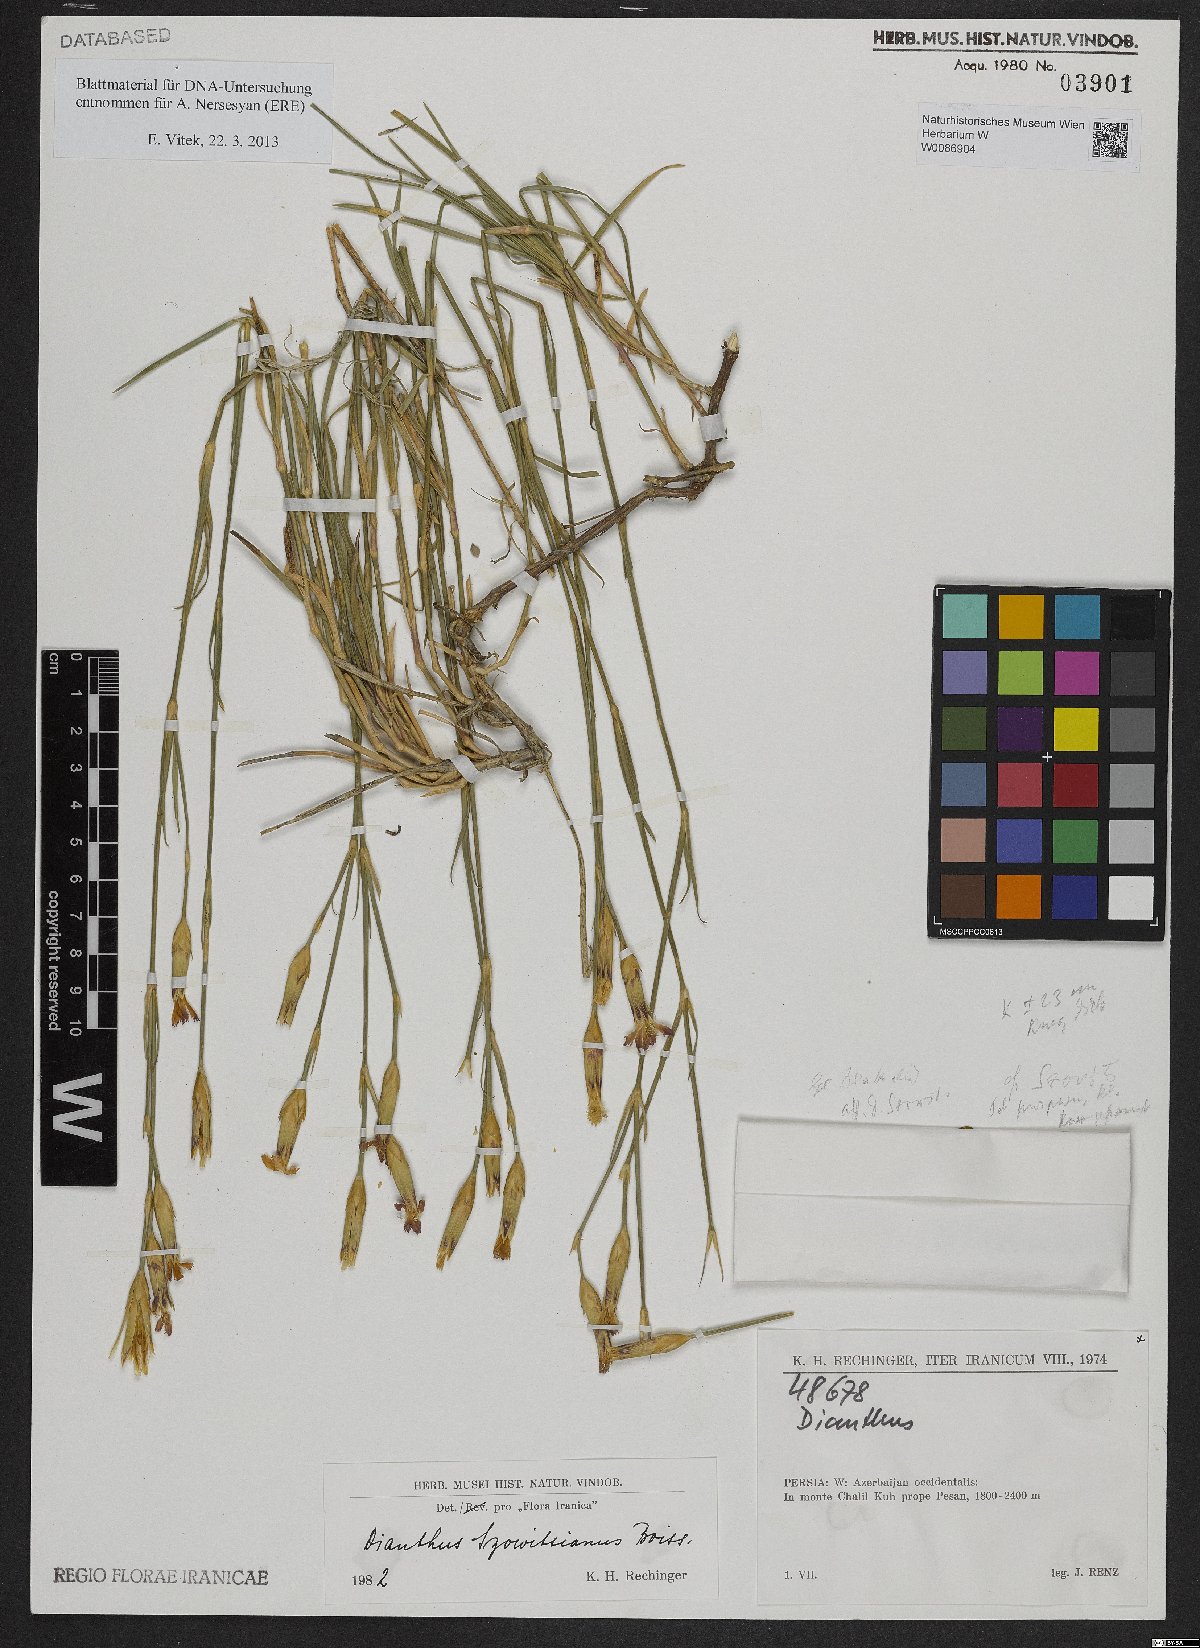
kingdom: Plantae
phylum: Tracheophyta
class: Magnoliopsida
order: Caryophyllales
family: Caryophyllaceae
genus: Dianthus
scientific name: Dianthus szowitsianus
